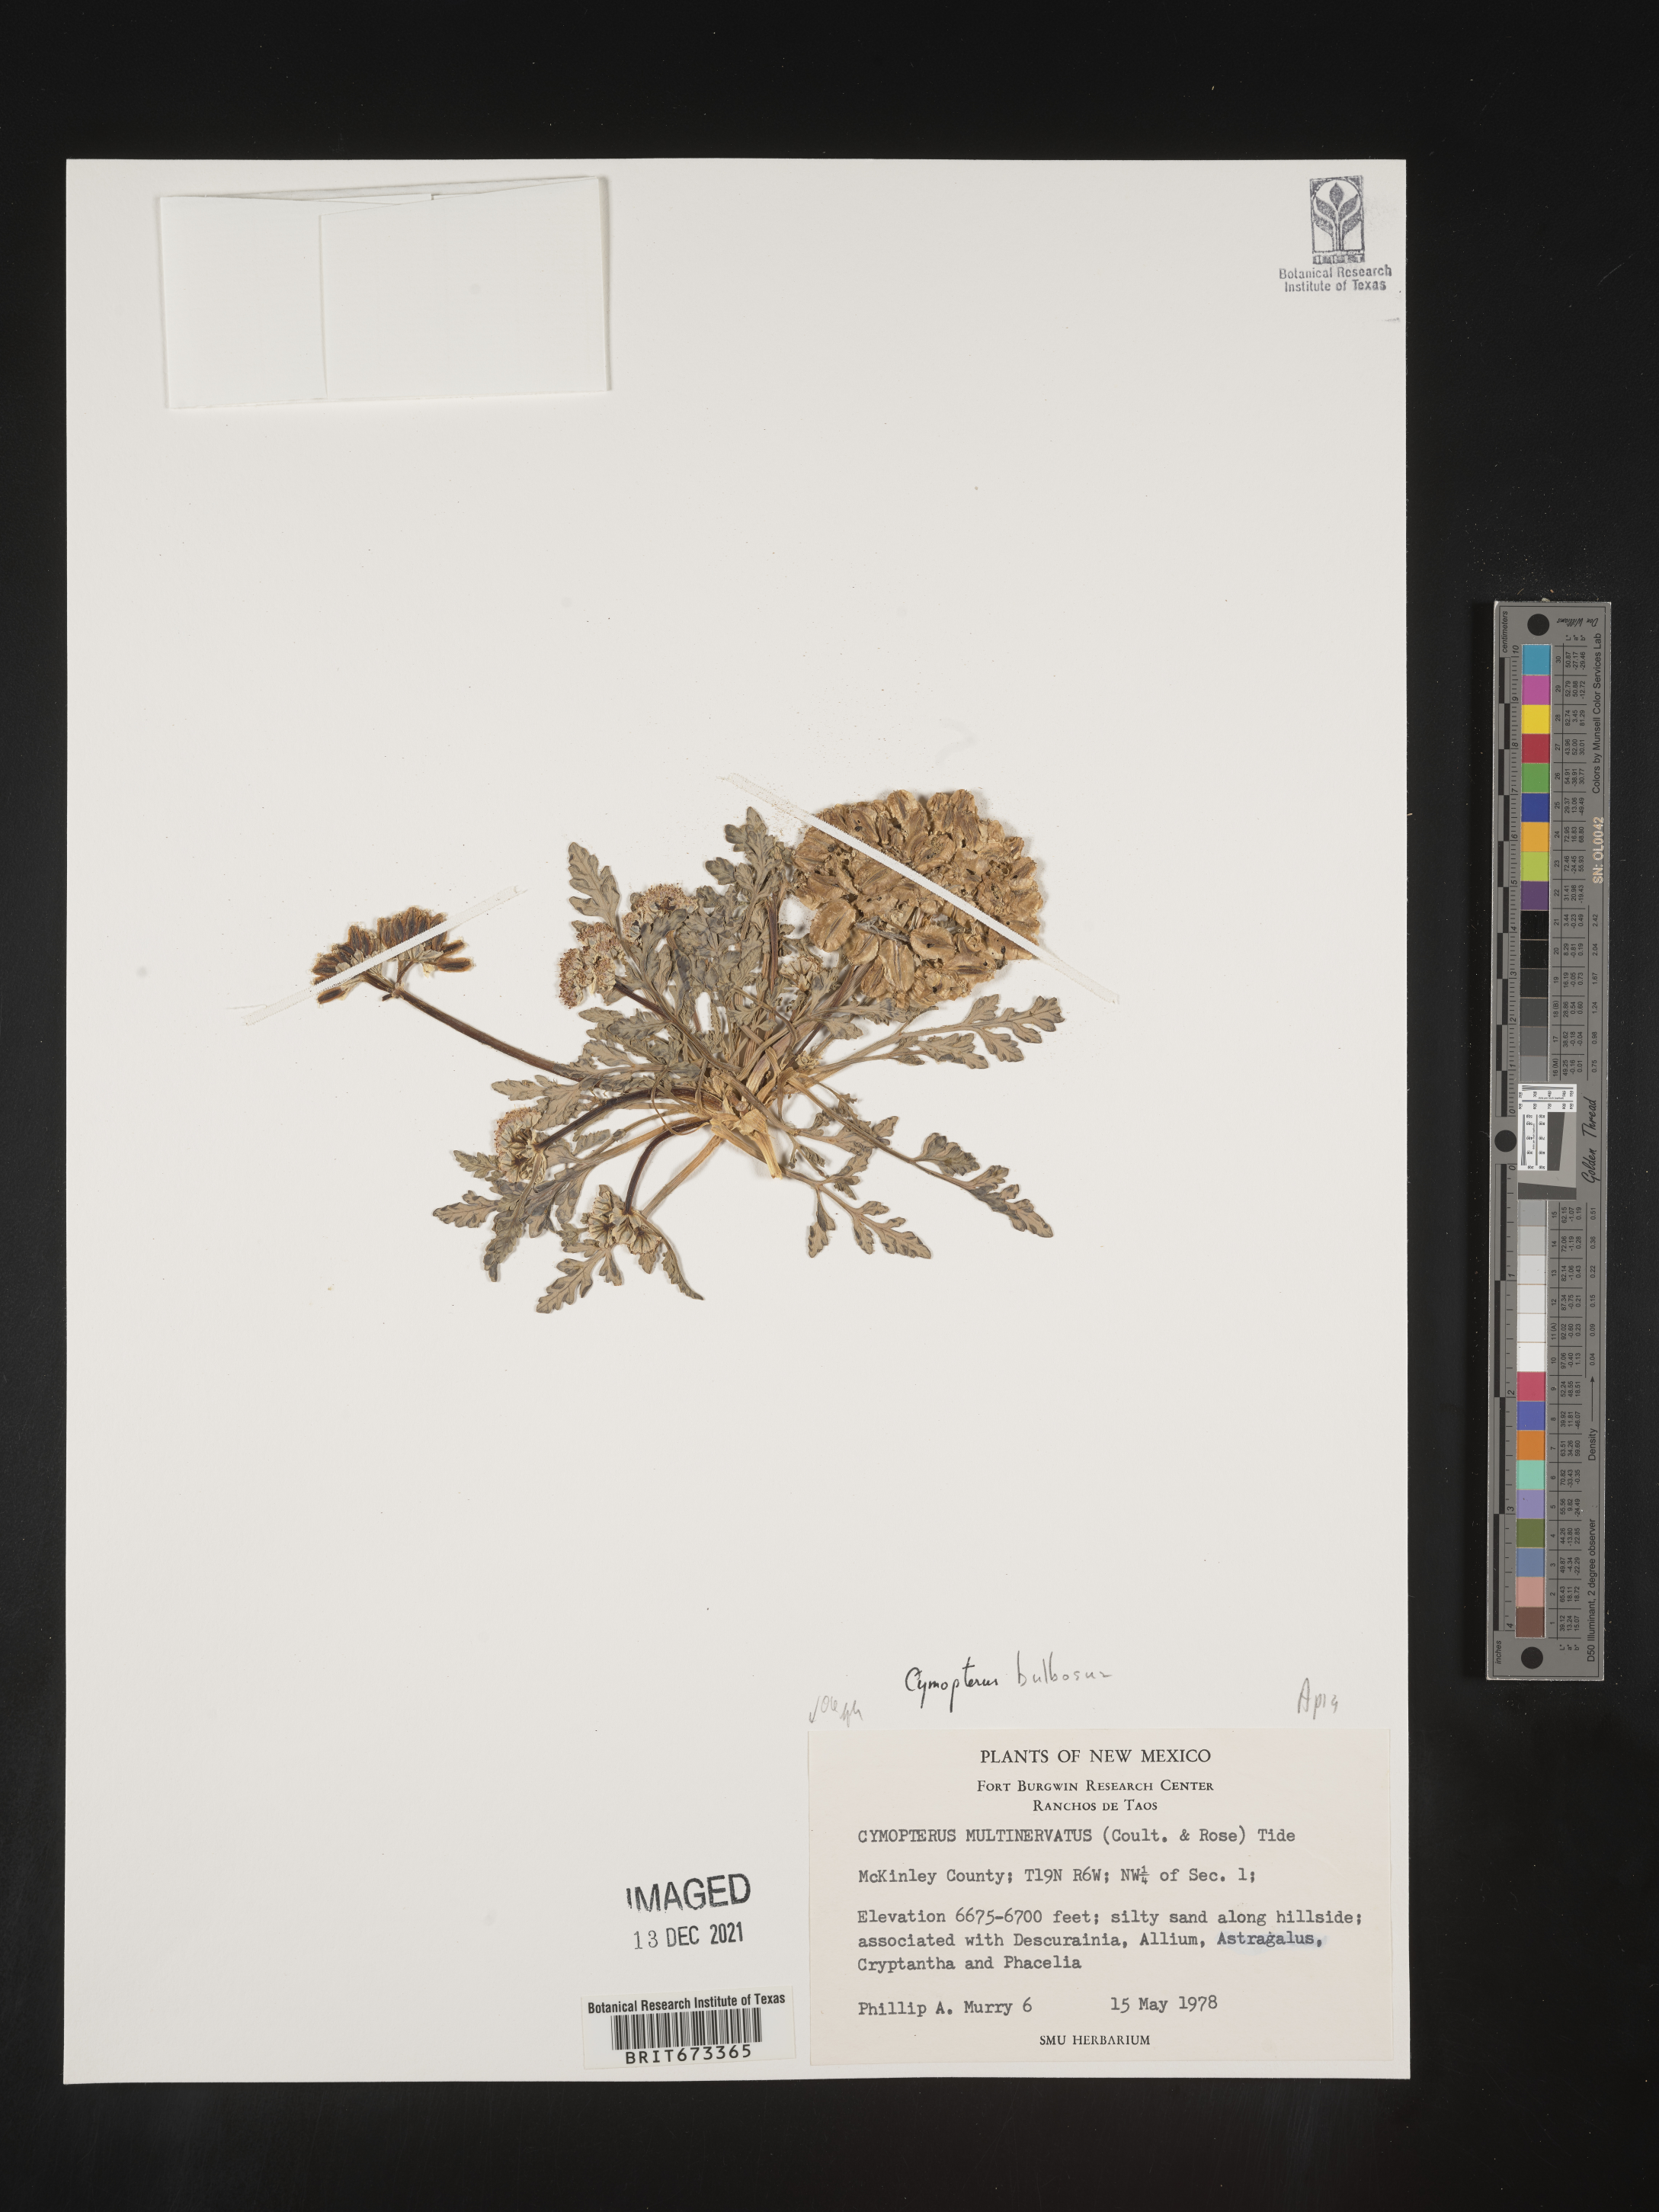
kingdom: Plantae
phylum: Tracheophyta
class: Magnoliopsida
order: Apiales
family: Apiaceae
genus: Vesper
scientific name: Vesper bulbosus
